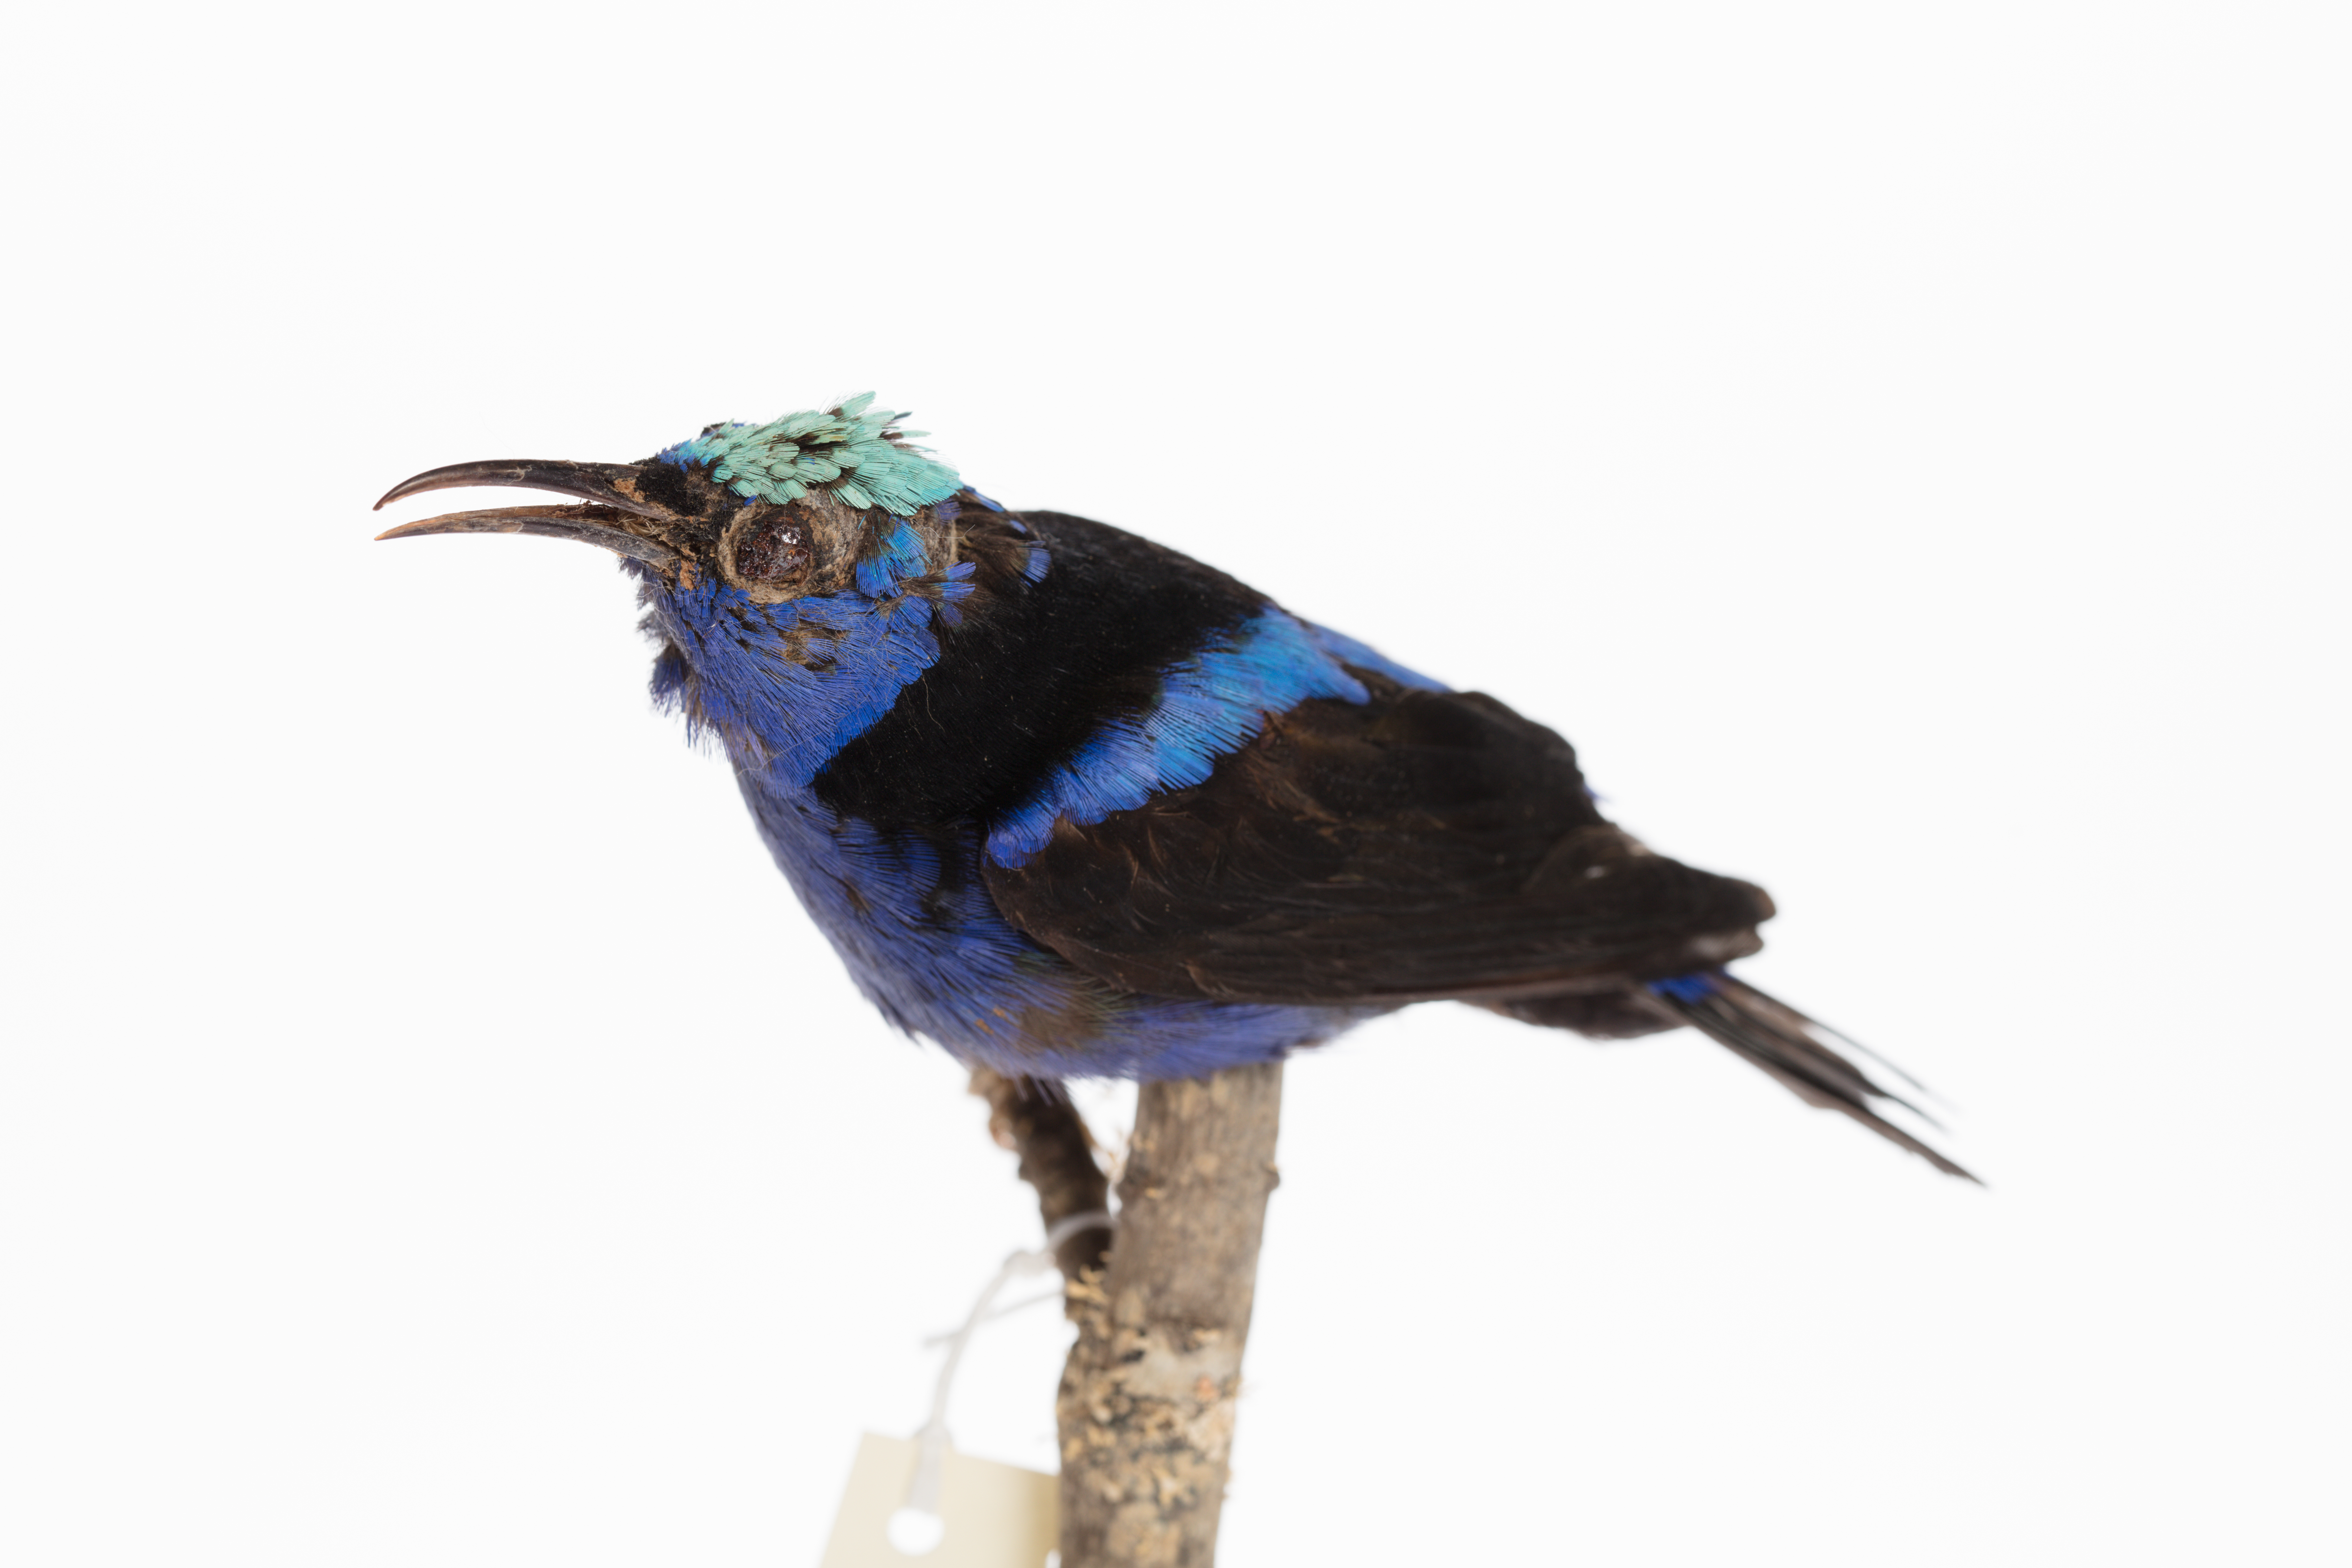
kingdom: Animalia
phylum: Chordata
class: Aves
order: Passeriformes
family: Thraupidae
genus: Cyanerpes
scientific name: Cyanerpes cyaneus
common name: Red-legged honeycreeper
